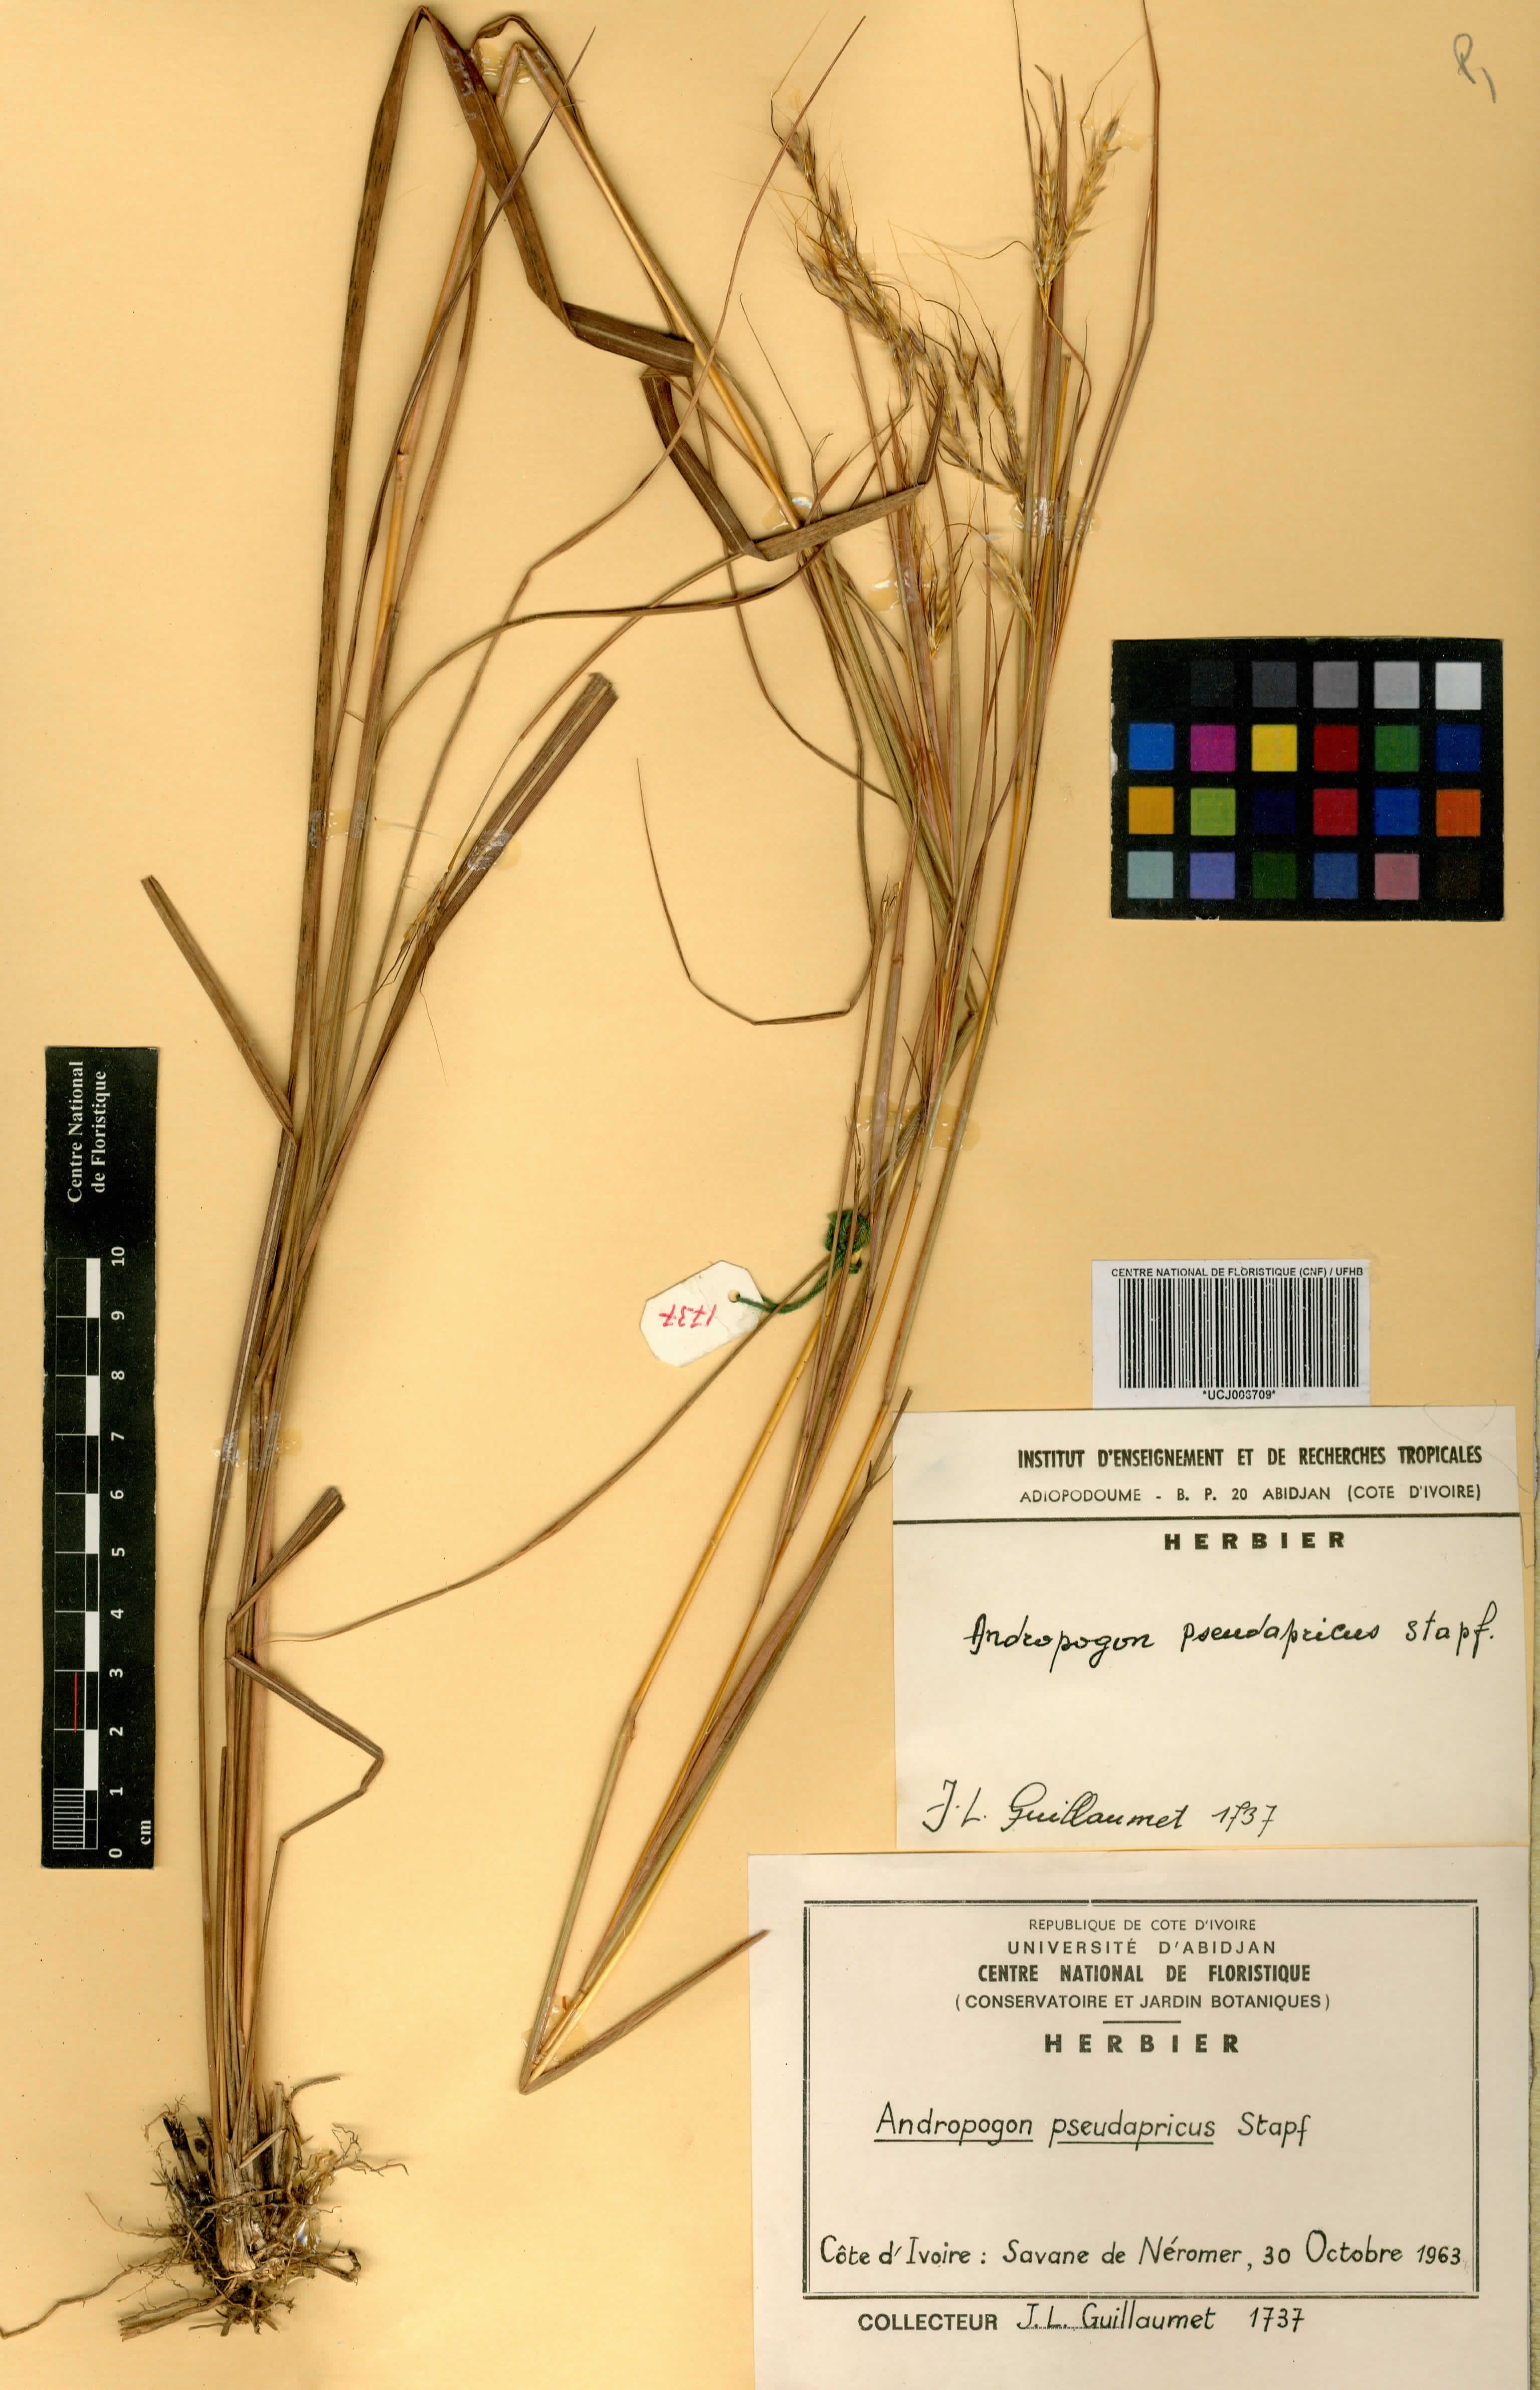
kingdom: Plantae
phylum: Tracheophyta
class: Liliopsida
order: Poales
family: Poaceae
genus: Andropogon
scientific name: Andropogon pseudapricus
